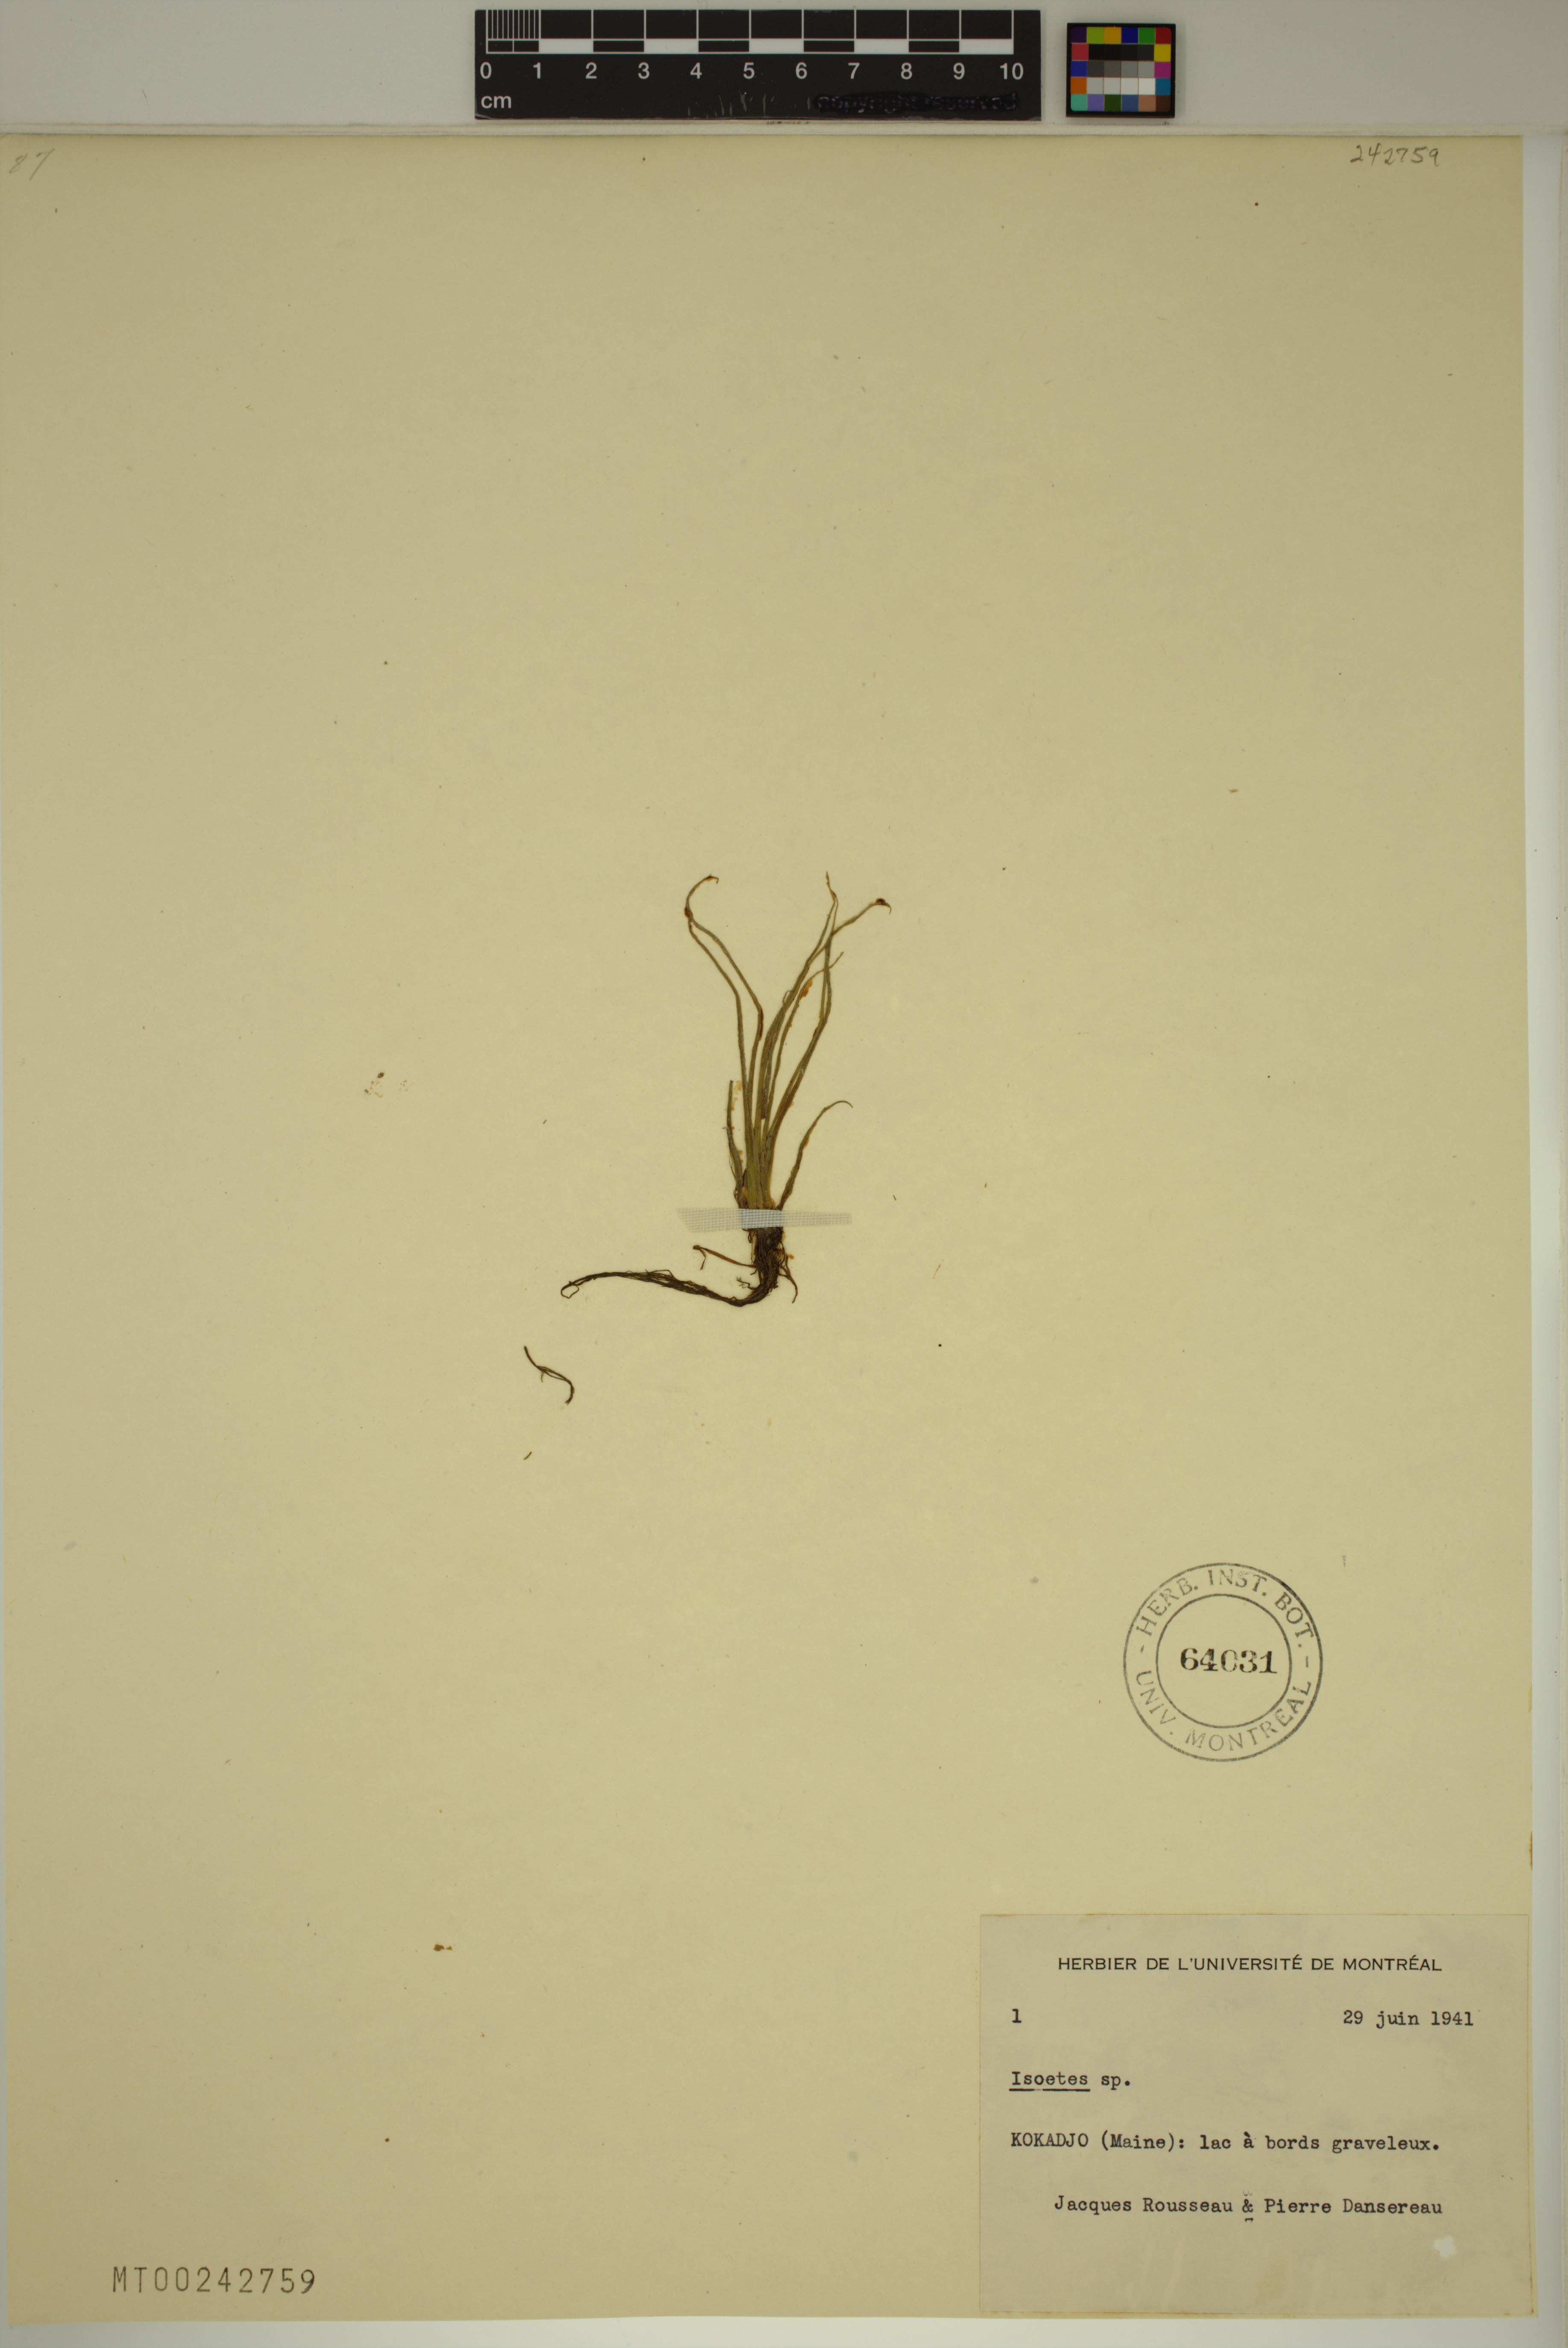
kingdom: Plantae
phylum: Tracheophyta
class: Lycopodiopsida
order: Isoetales
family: Isoetaceae
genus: Isoetes
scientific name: Isoetes echinospora
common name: Spring quillwort
